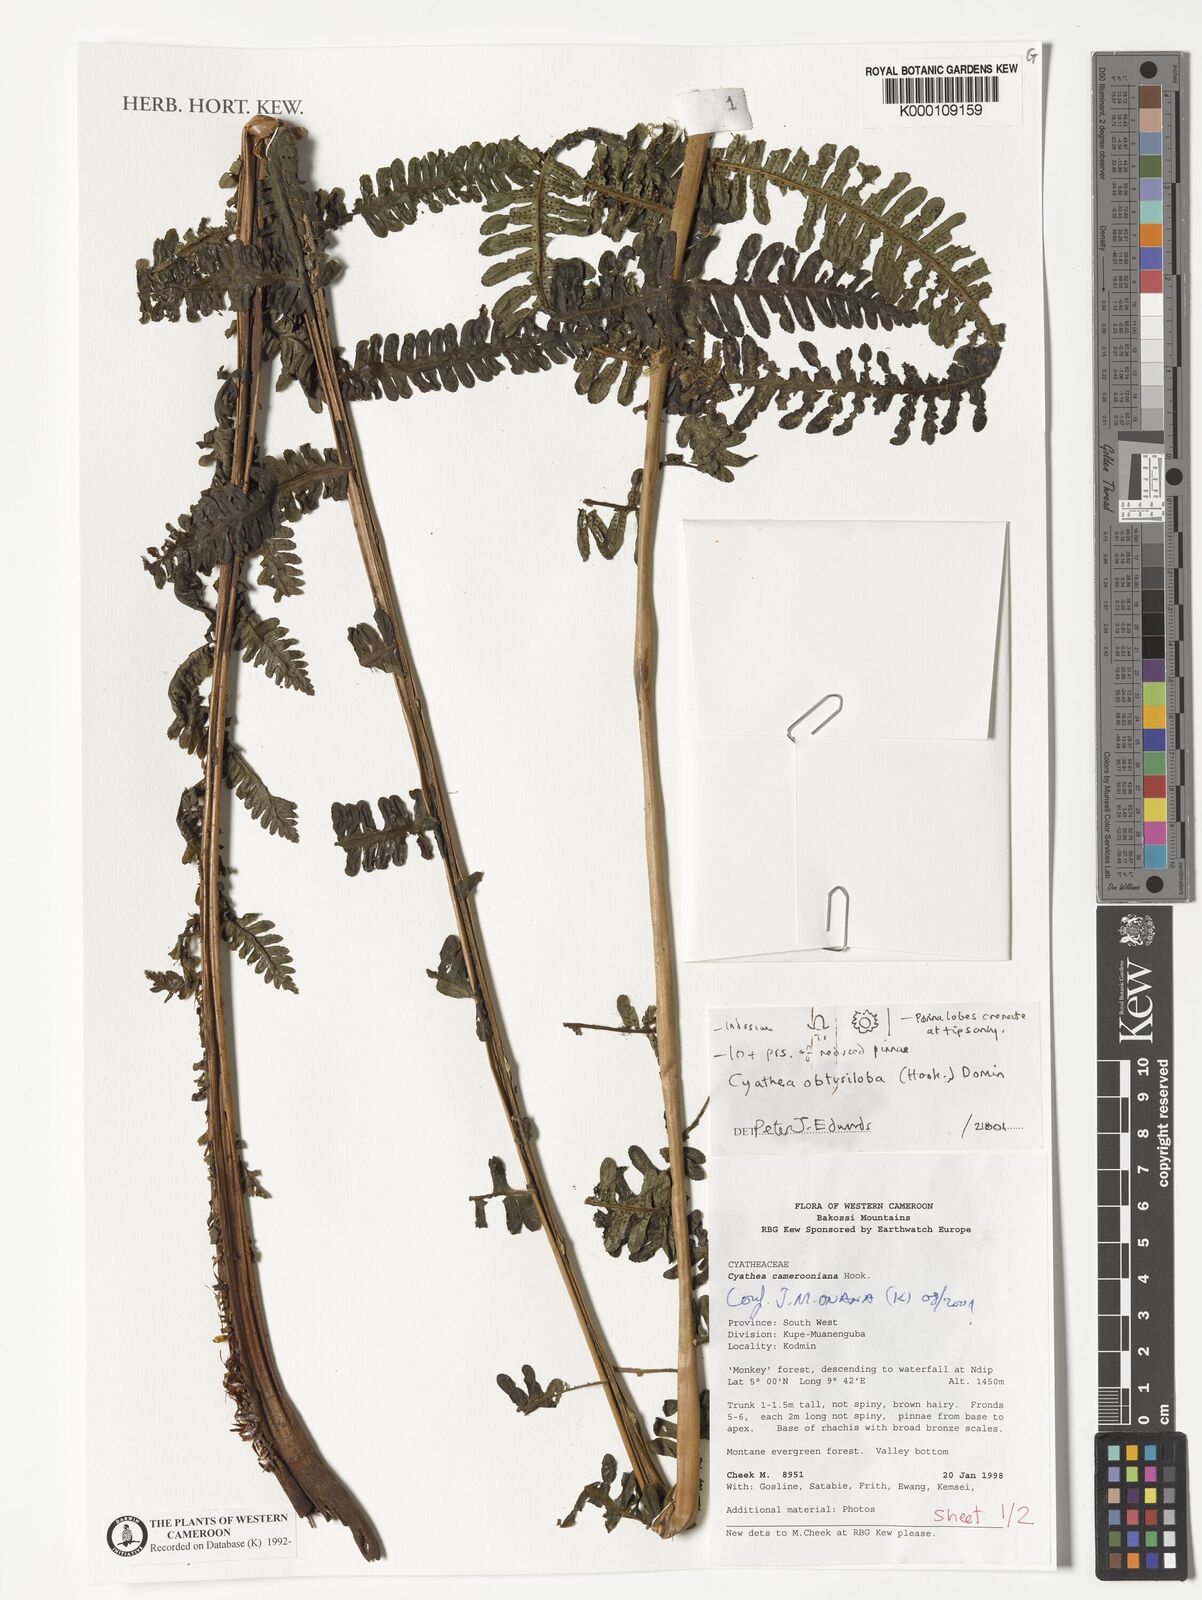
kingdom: Plantae
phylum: Tracheophyta
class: Polypodiopsida
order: Cyatheales
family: Cyatheaceae
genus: Alsophila
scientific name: Alsophila obtusiloba
